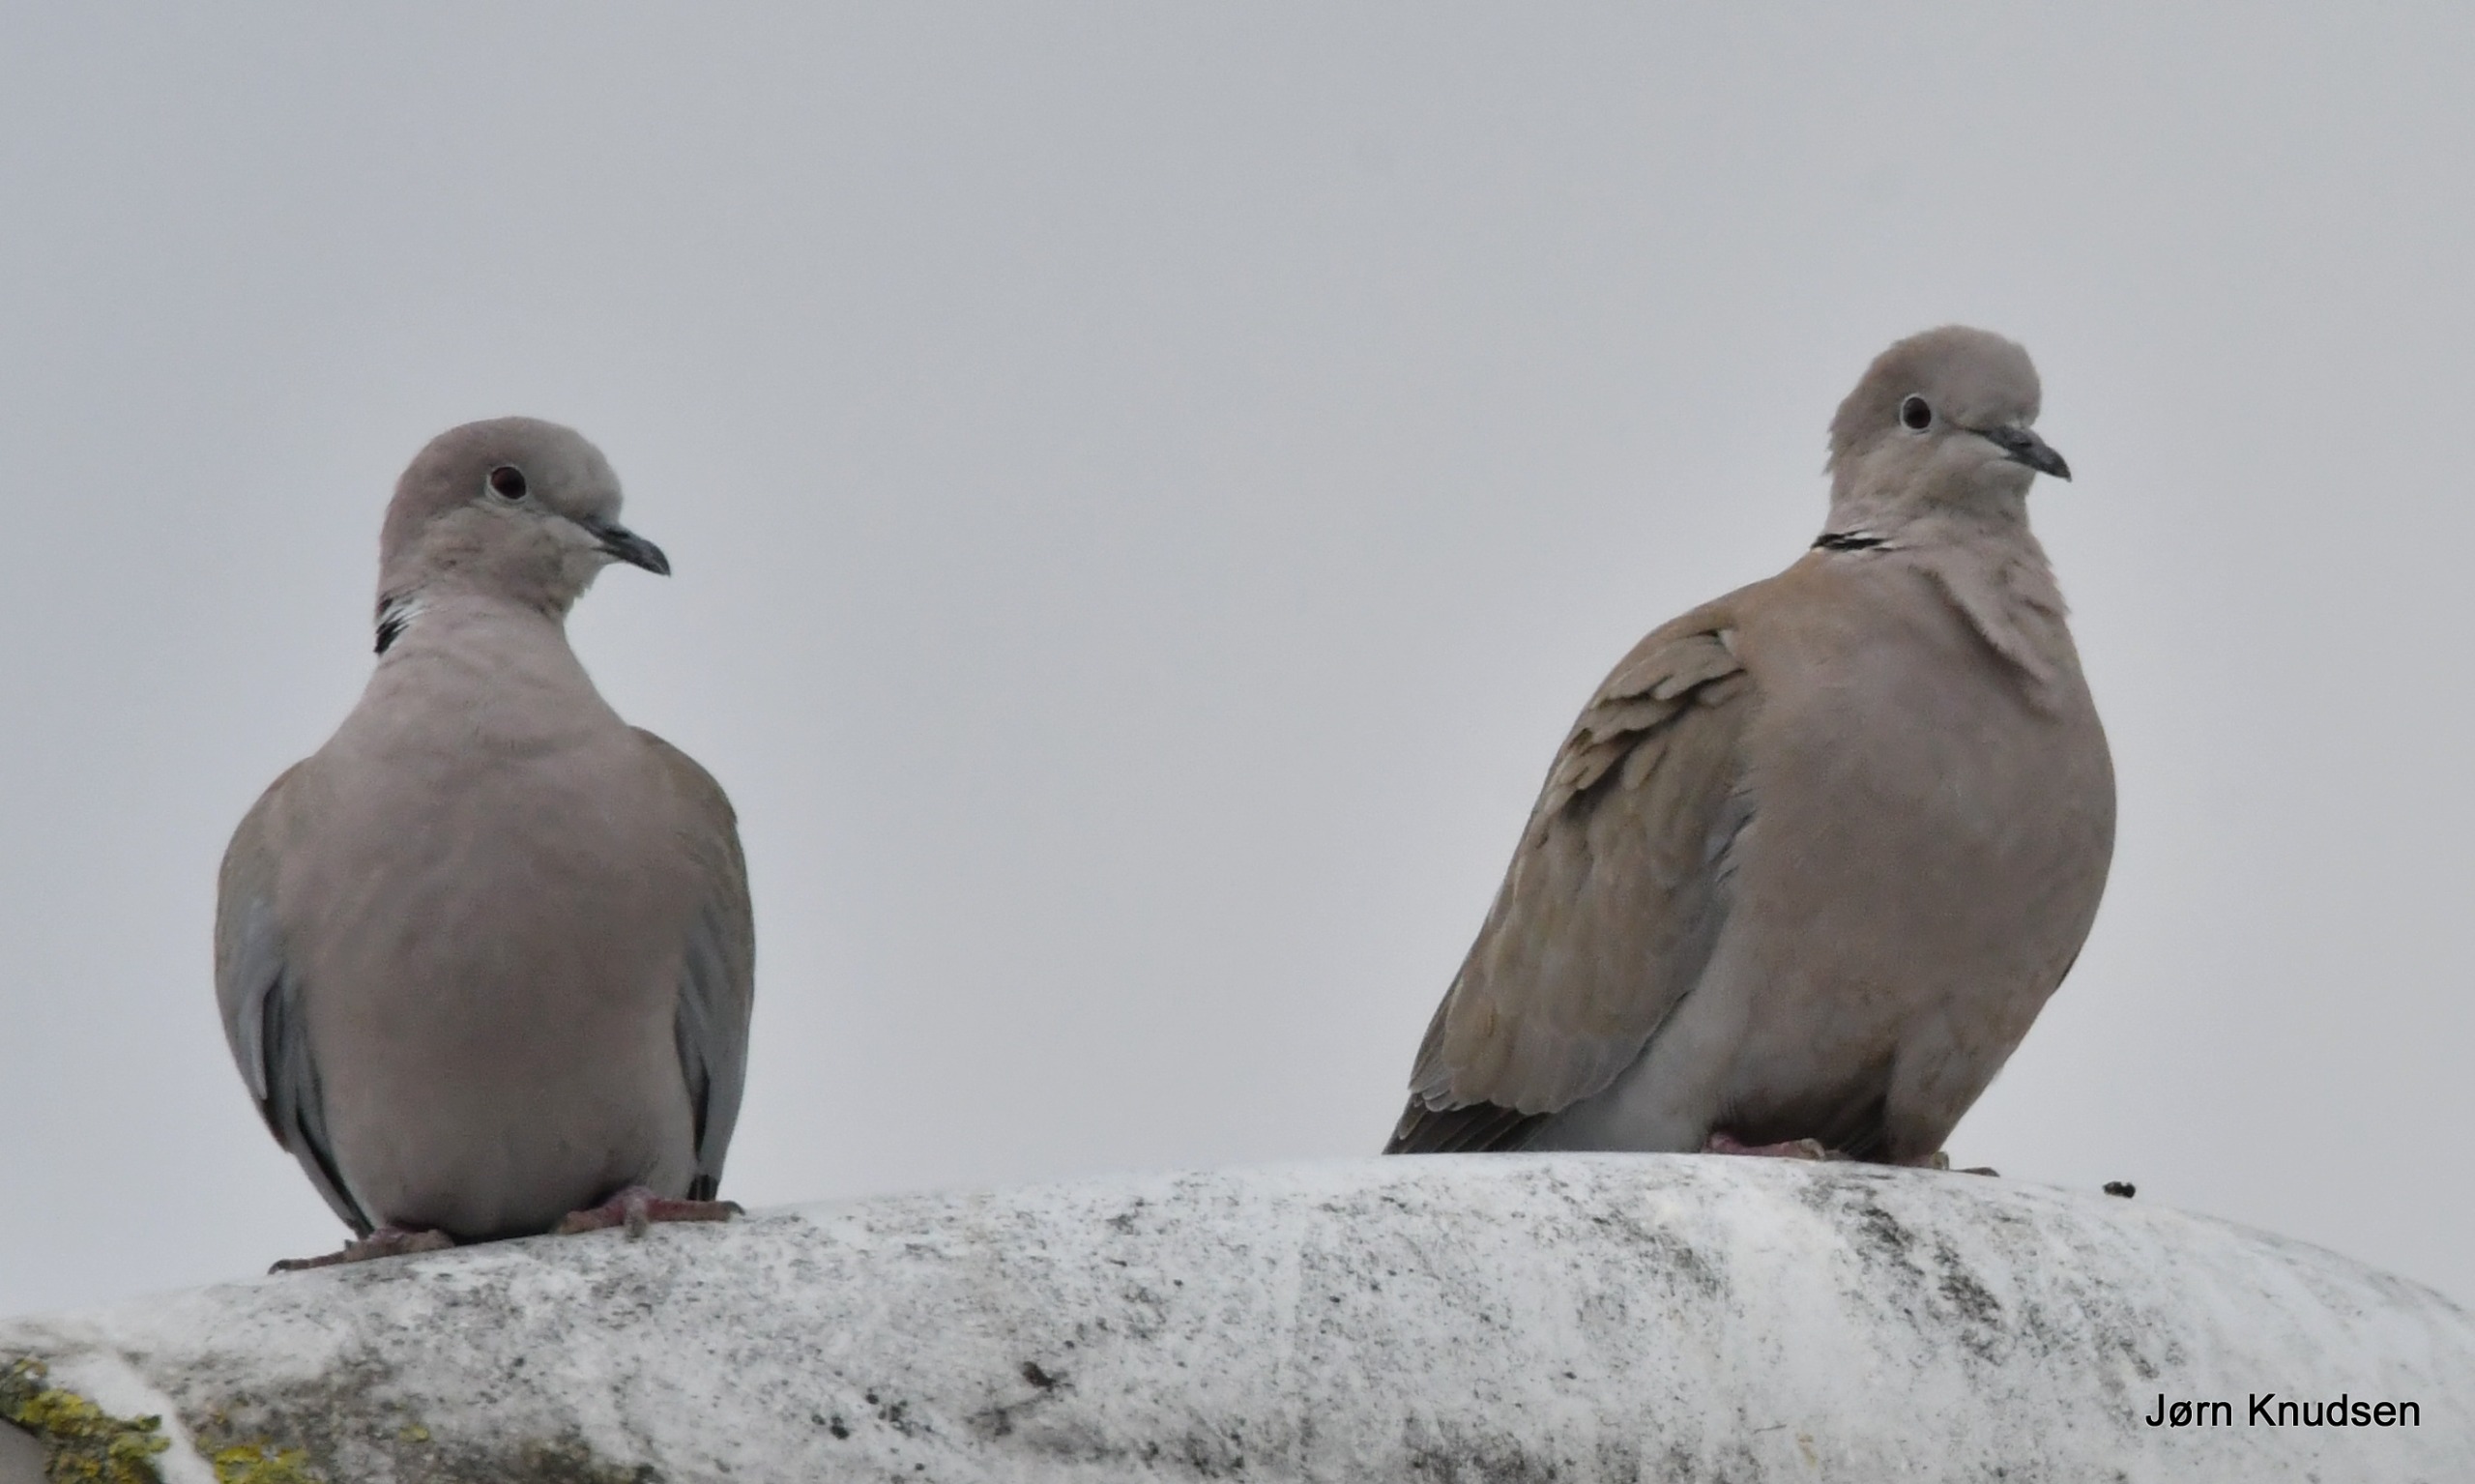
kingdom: Animalia
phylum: Chordata
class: Aves
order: Columbiformes
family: Columbidae
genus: Streptopelia
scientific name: Streptopelia decaocto
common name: Tyrkerdue
